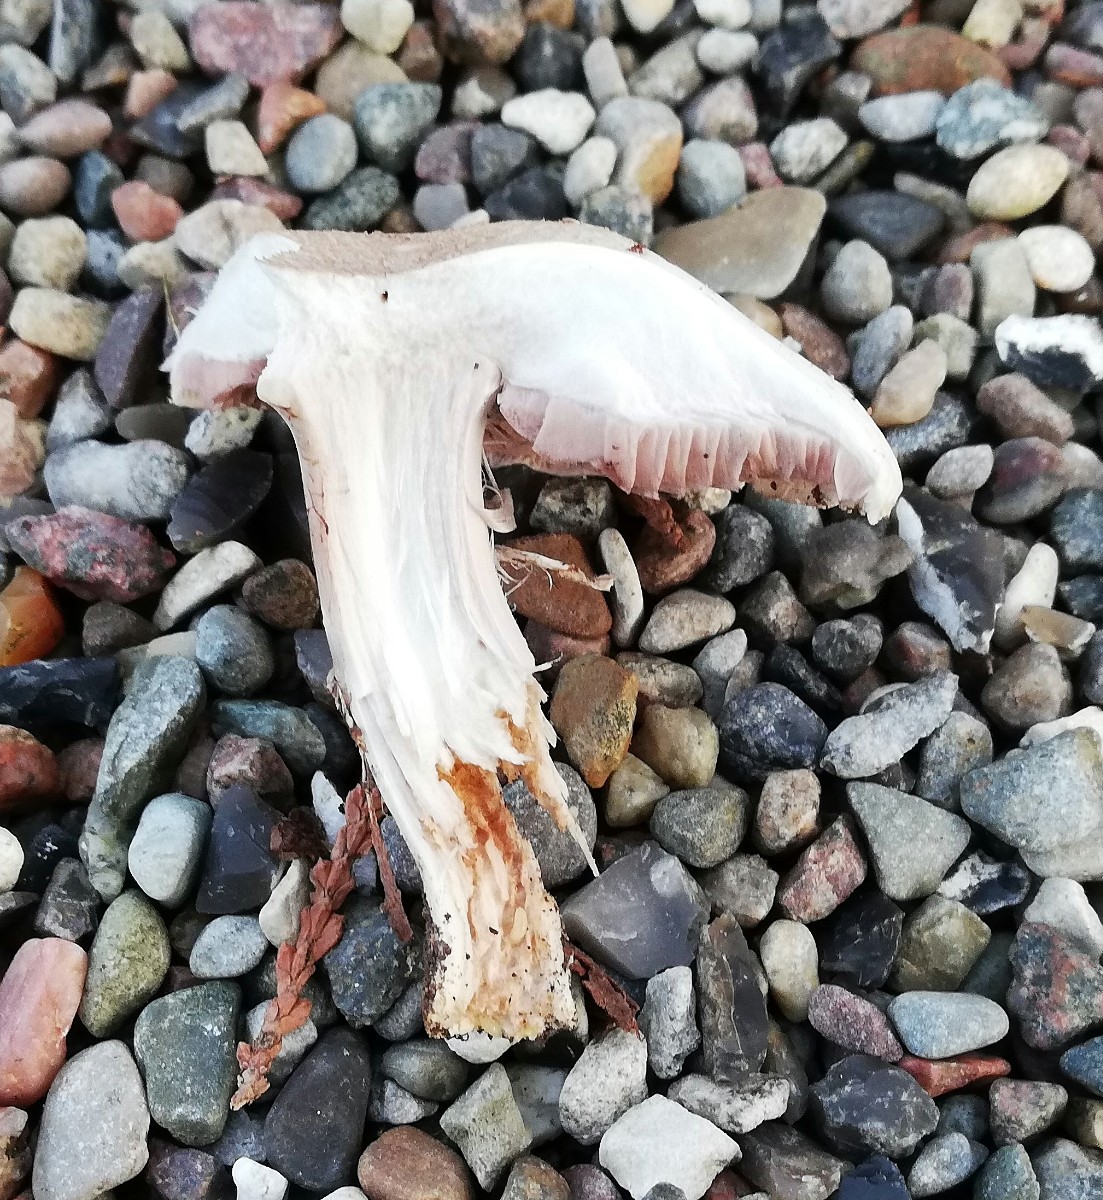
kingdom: Fungi
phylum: Basidiomycota
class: Agaricomycetes
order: Agaricales
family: Agaricaceae
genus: Agaricus
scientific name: Agaricus
